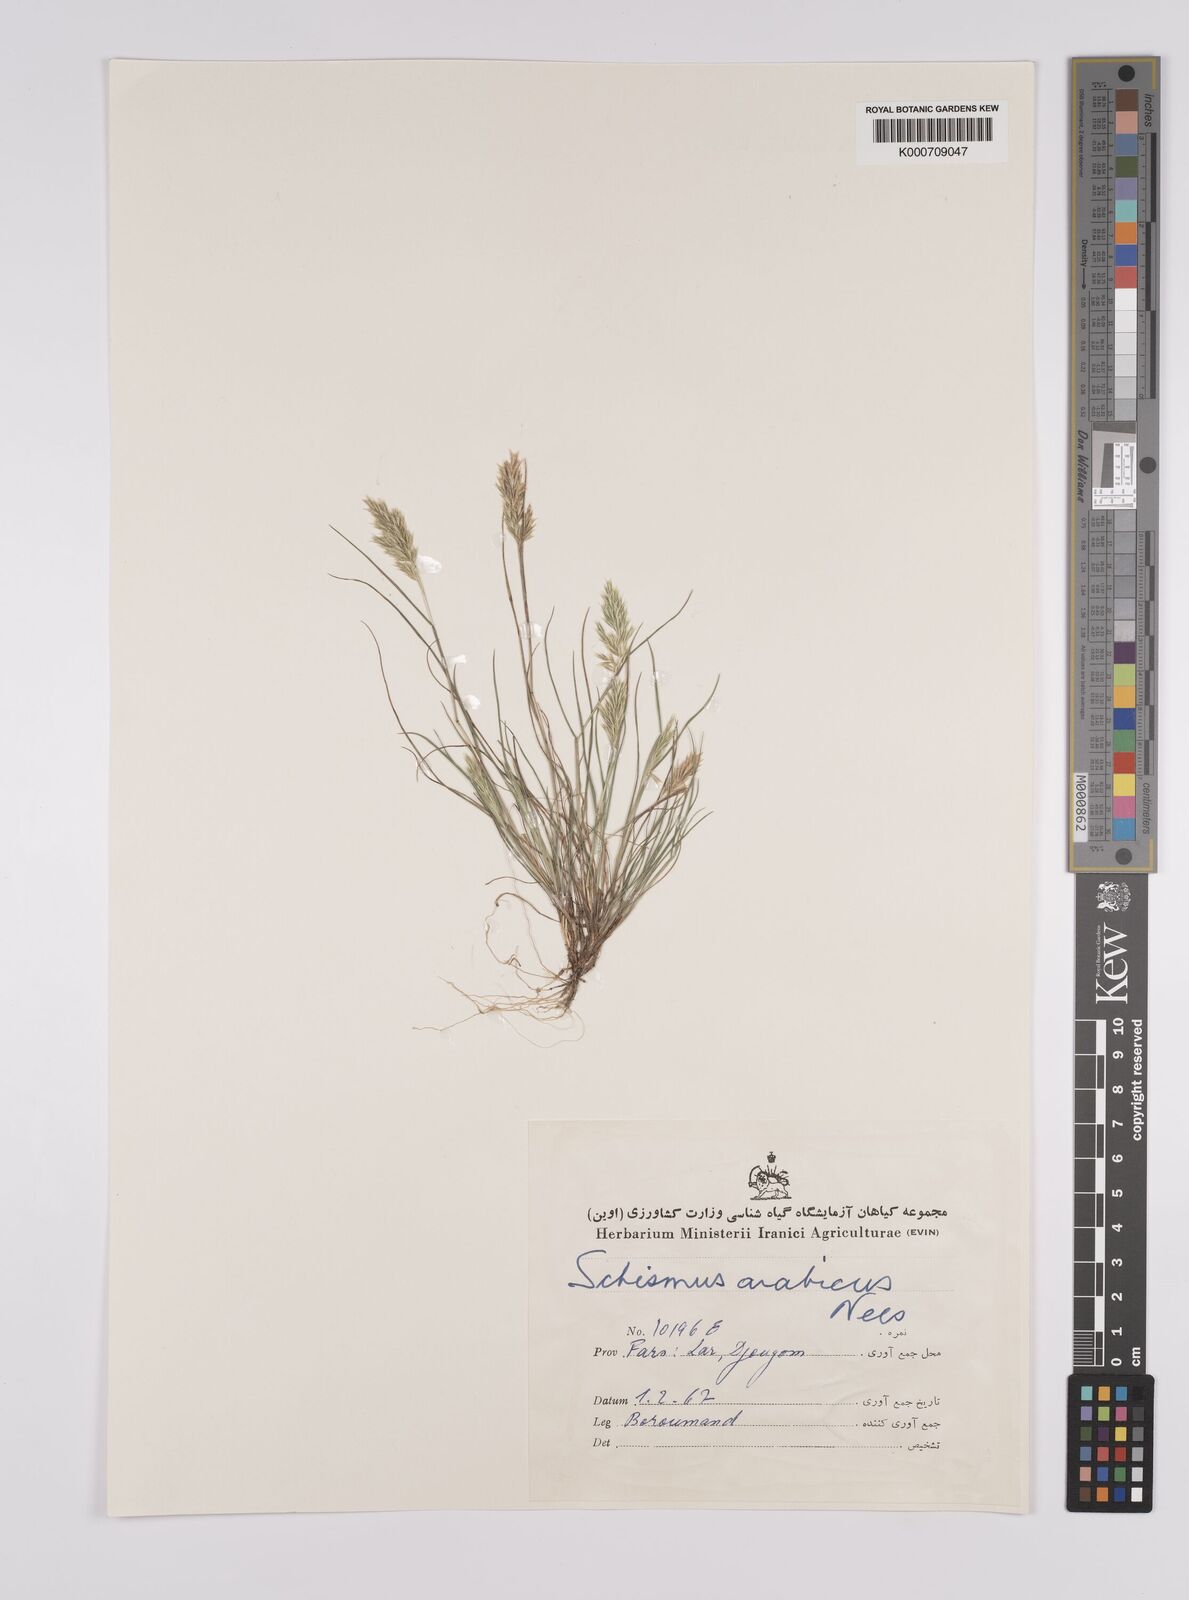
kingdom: Plantae
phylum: Tracheophyta
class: Liliopsida
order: Poales
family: Poaceae
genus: Schismus
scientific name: Schismus arabicus
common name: Arabian schismus
